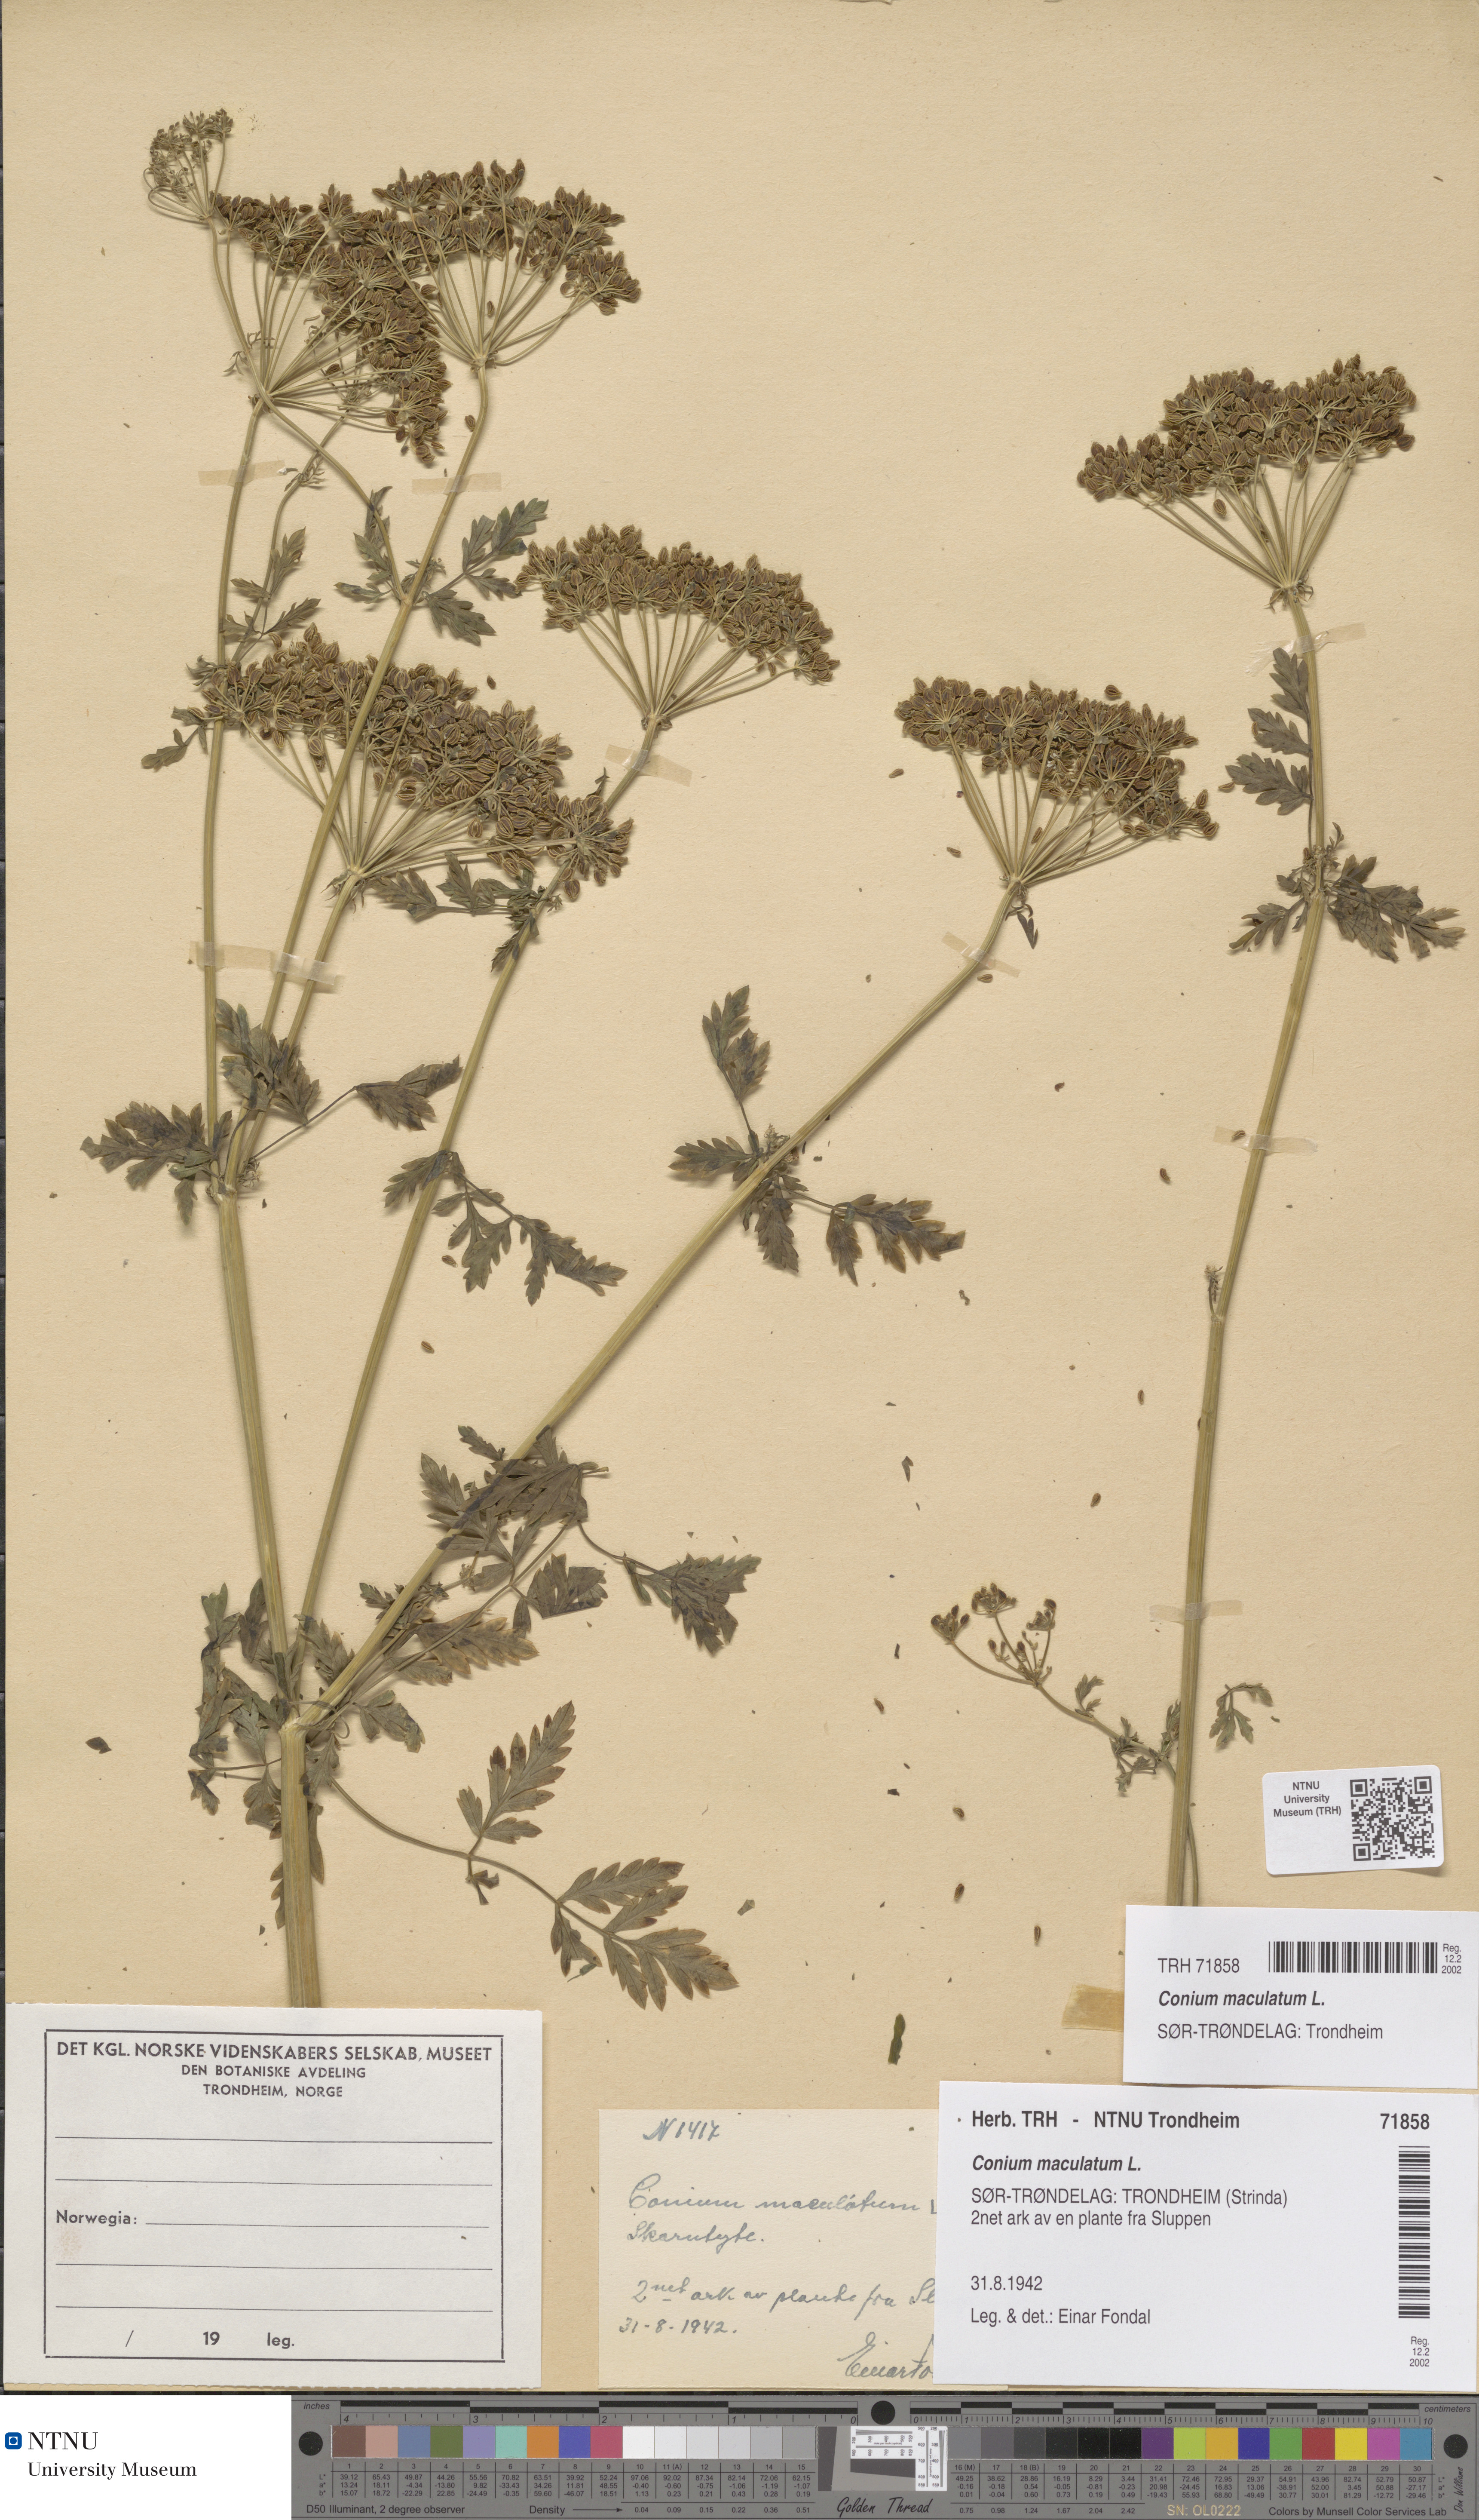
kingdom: Plantae
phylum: Tracheophyta
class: Magnoliopsida
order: Apiales
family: Apiaceae
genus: Conium
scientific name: Conium maculatum
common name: Hemlock
